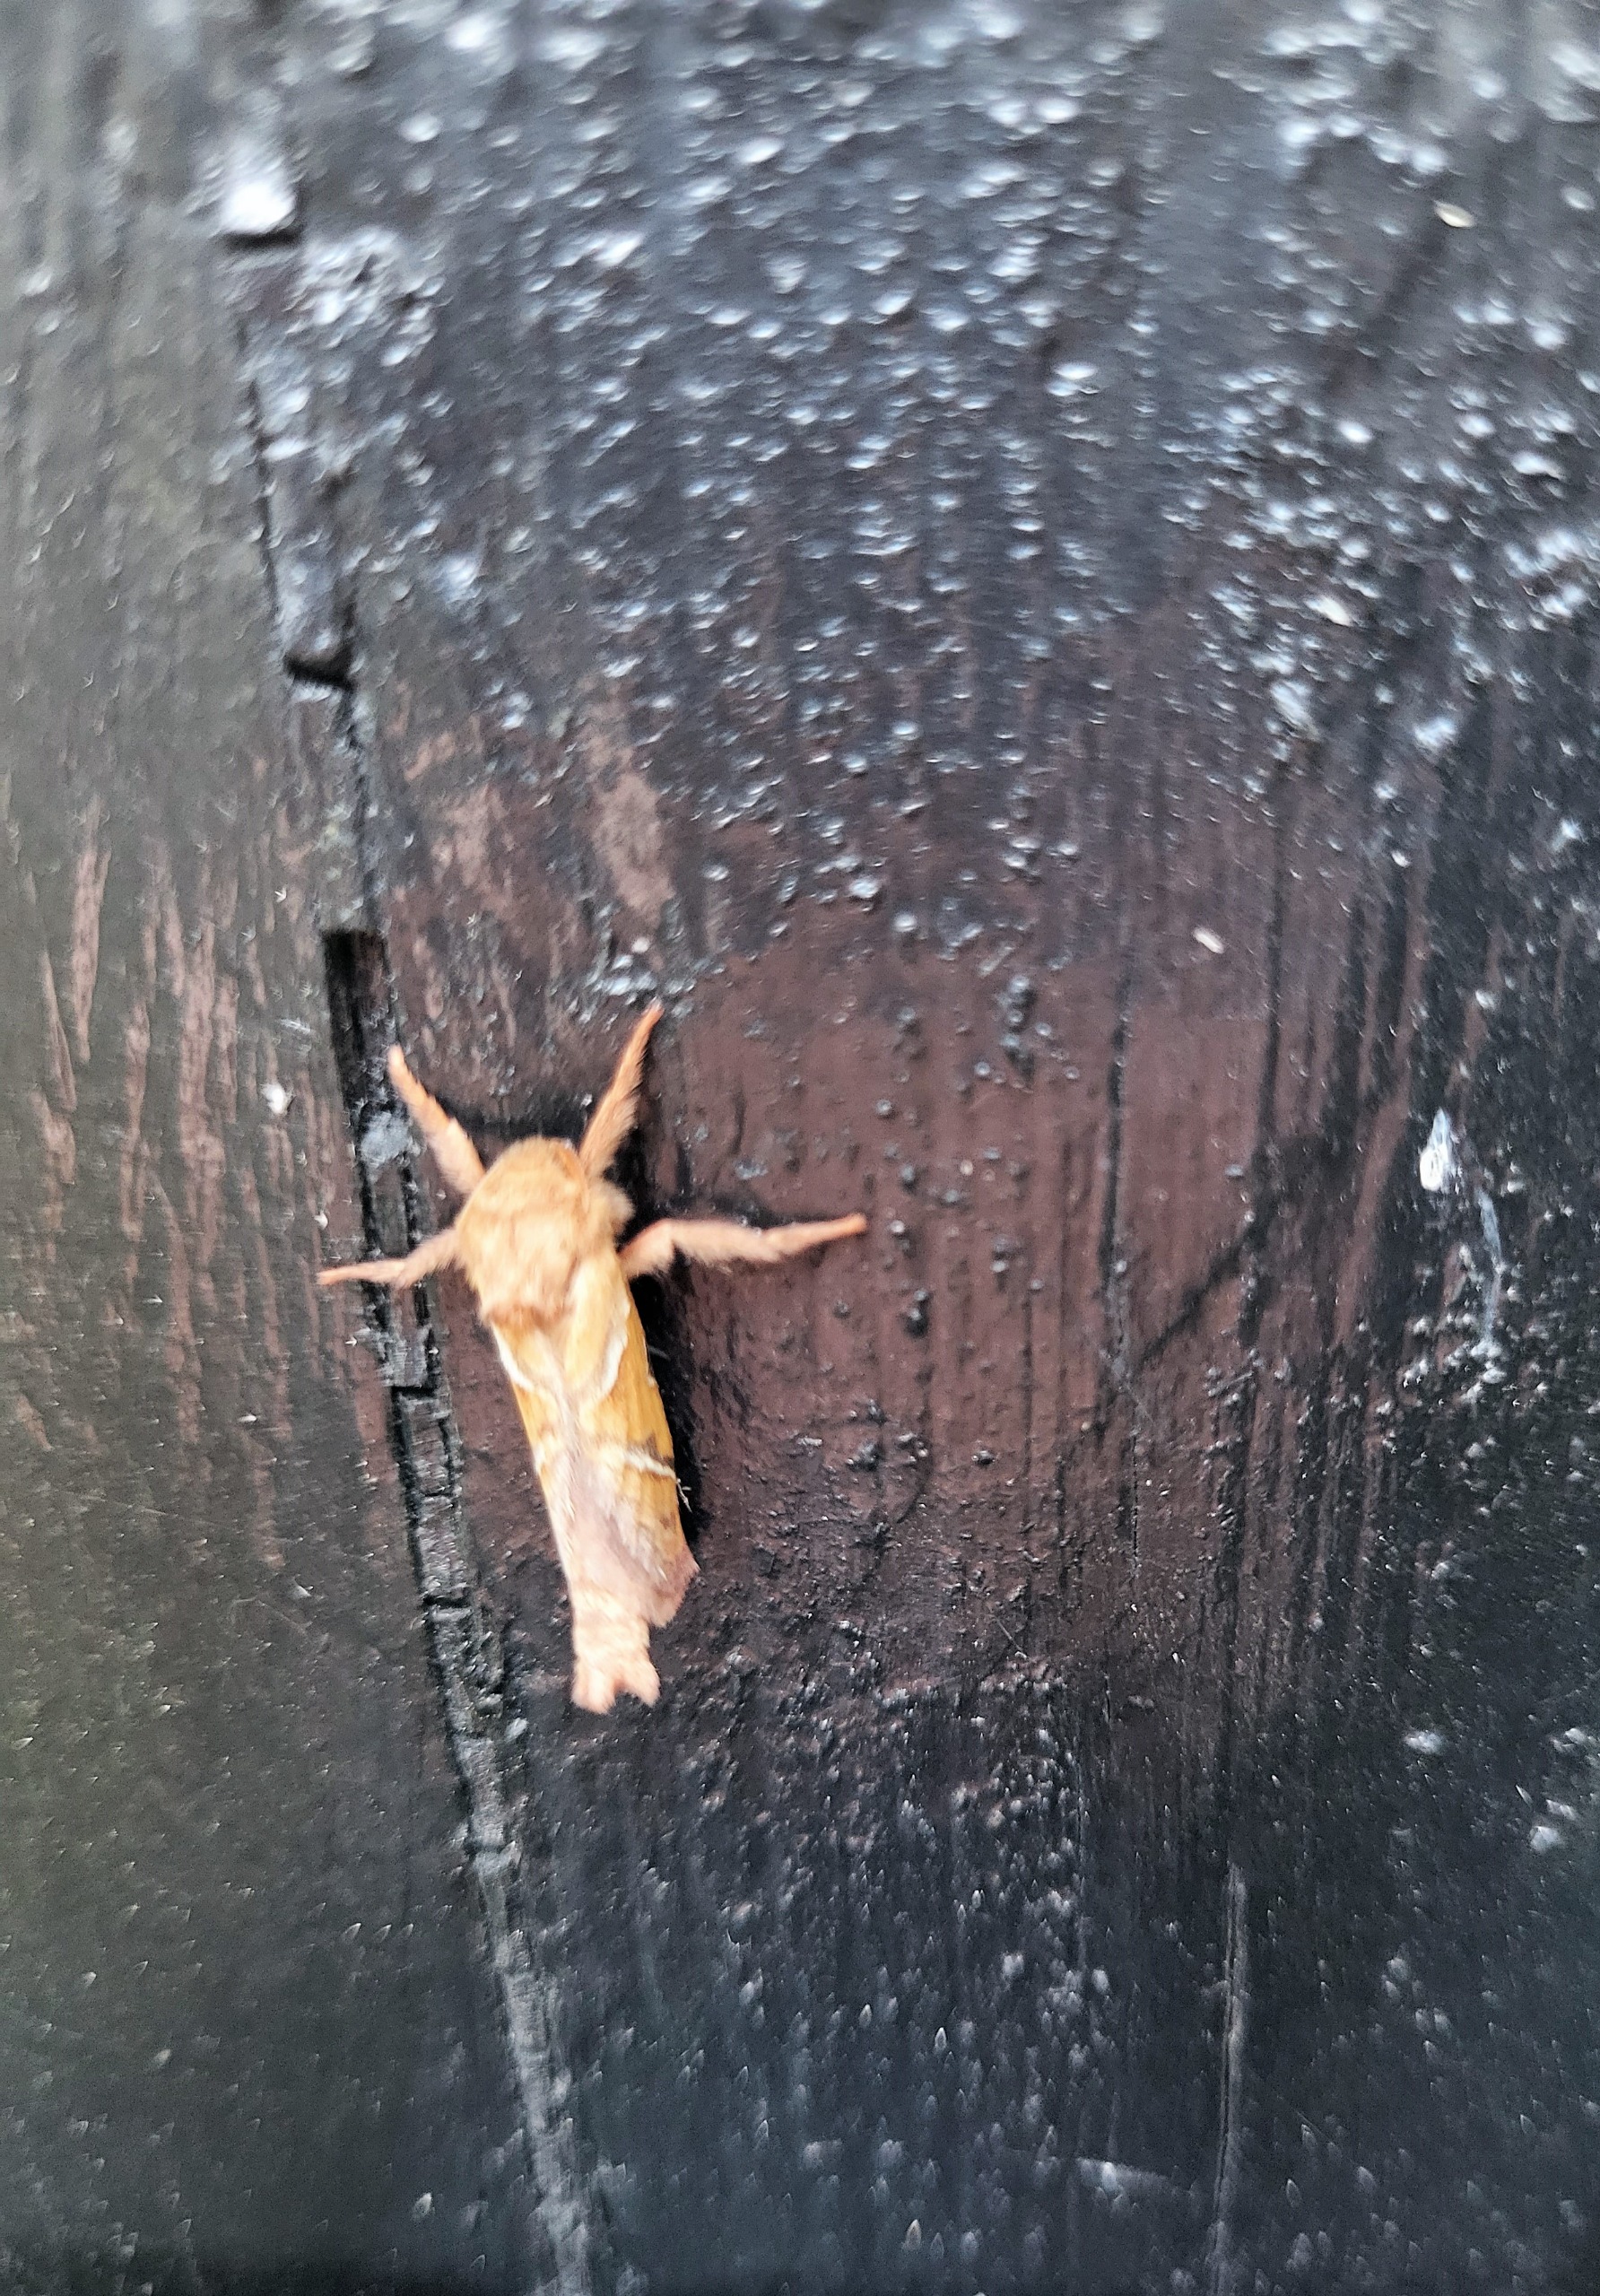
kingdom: Animalia
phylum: Arthropoda
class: Insecta
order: Lepidoptera
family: Hepialidae
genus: Triodia
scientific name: Triodia sylvina
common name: Skræpperodæder
